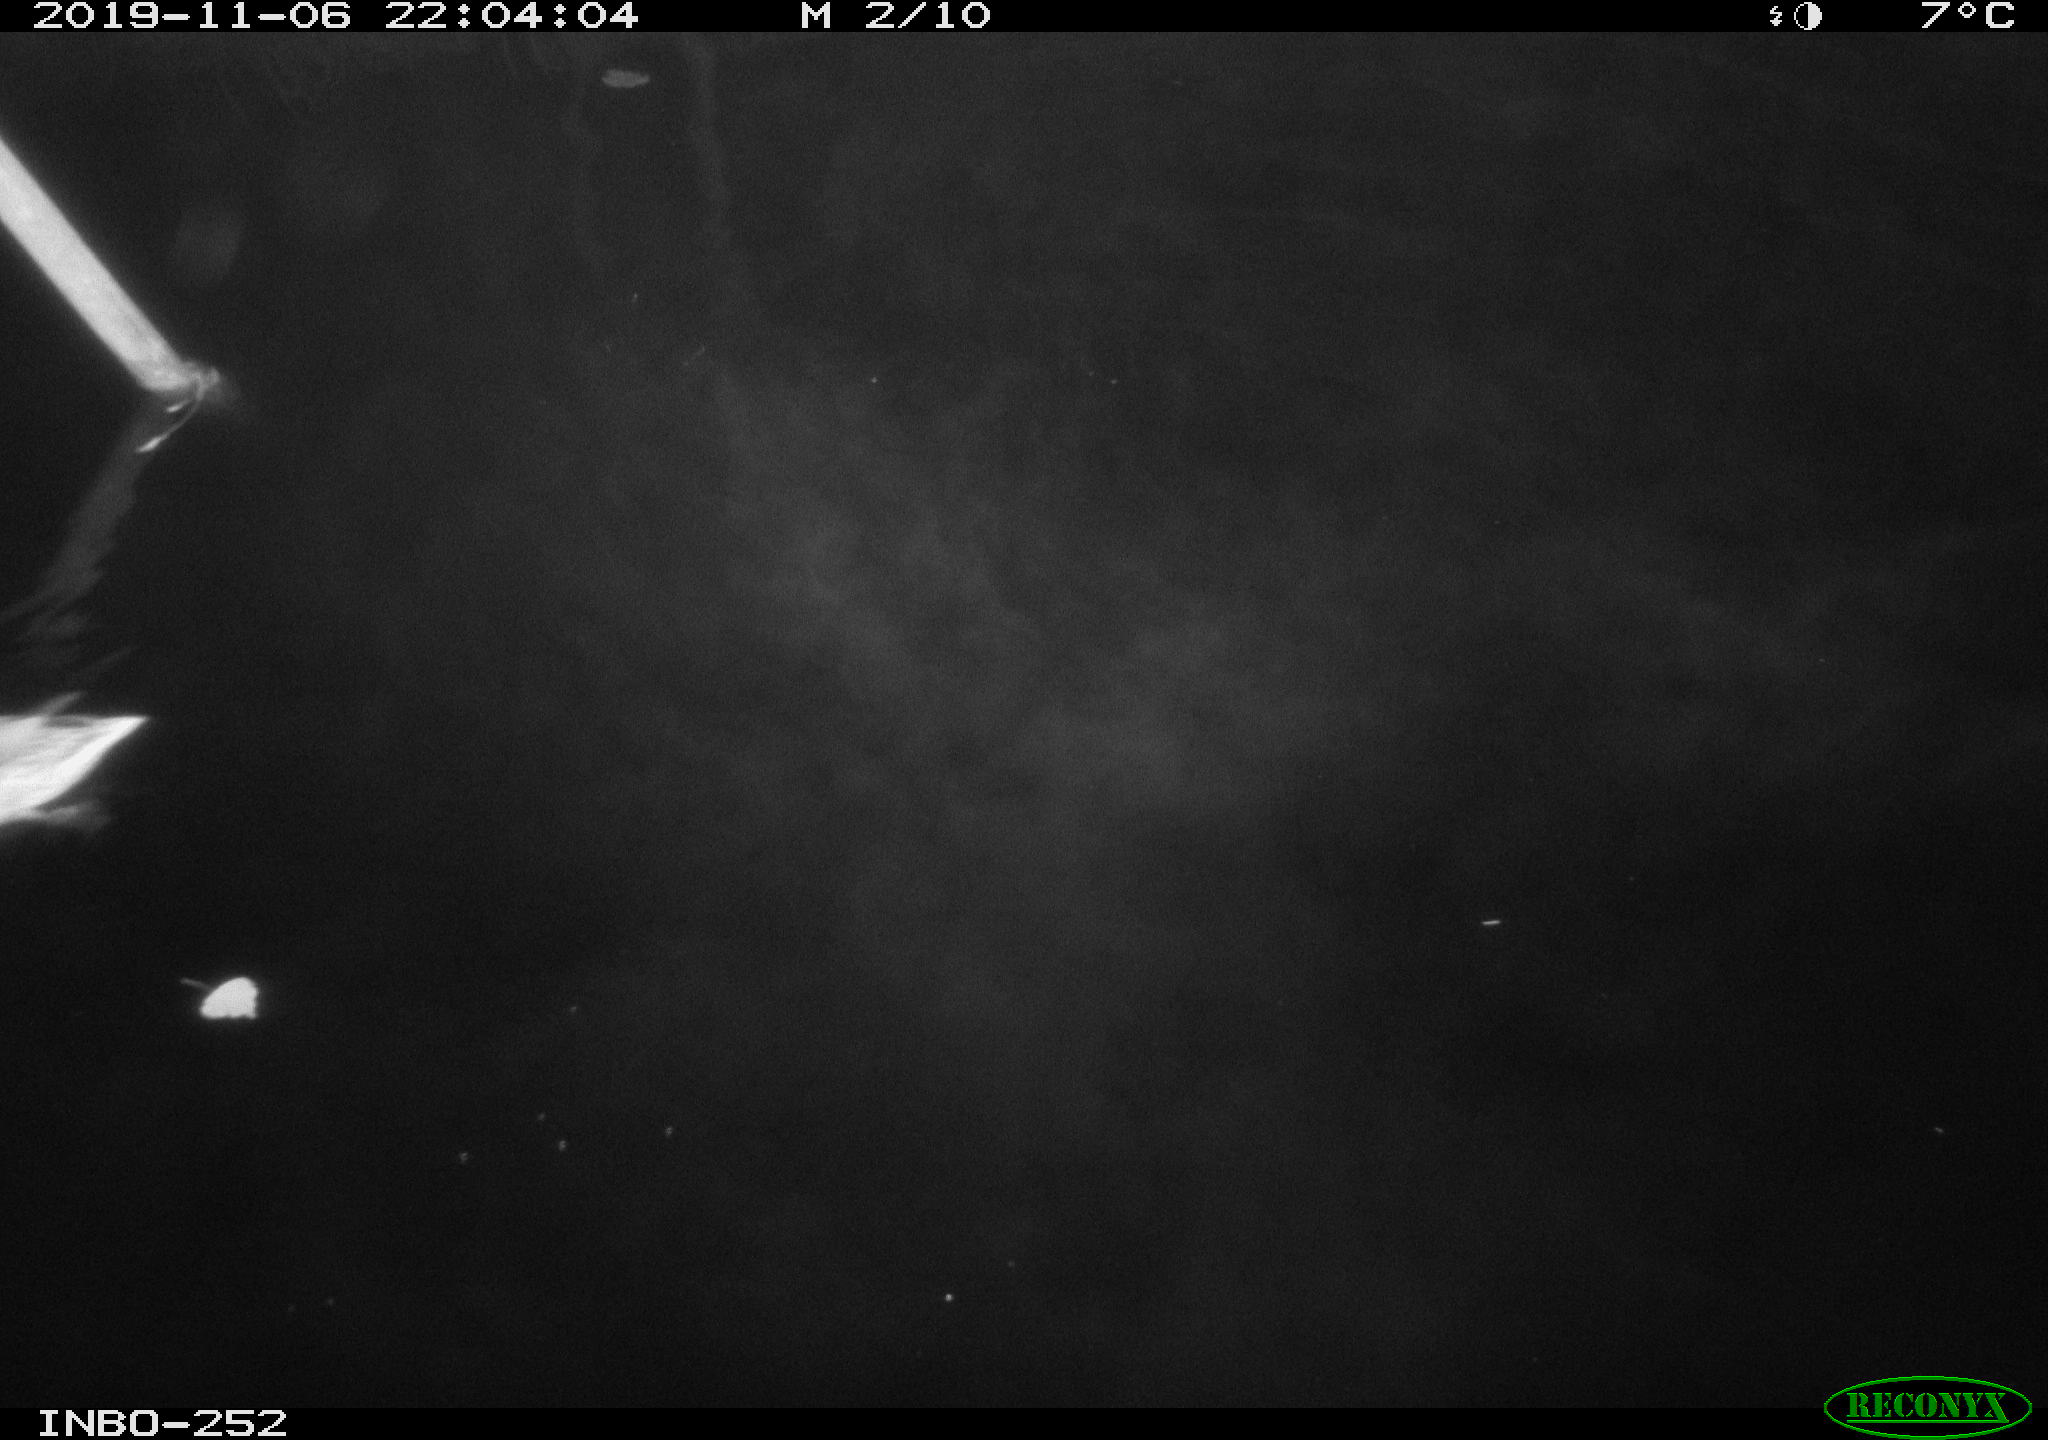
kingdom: Animalia
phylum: Chordata
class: Aves
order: Anseriformes
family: Anatidae
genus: Anas
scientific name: Anas platyrhynchos
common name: Mallard
